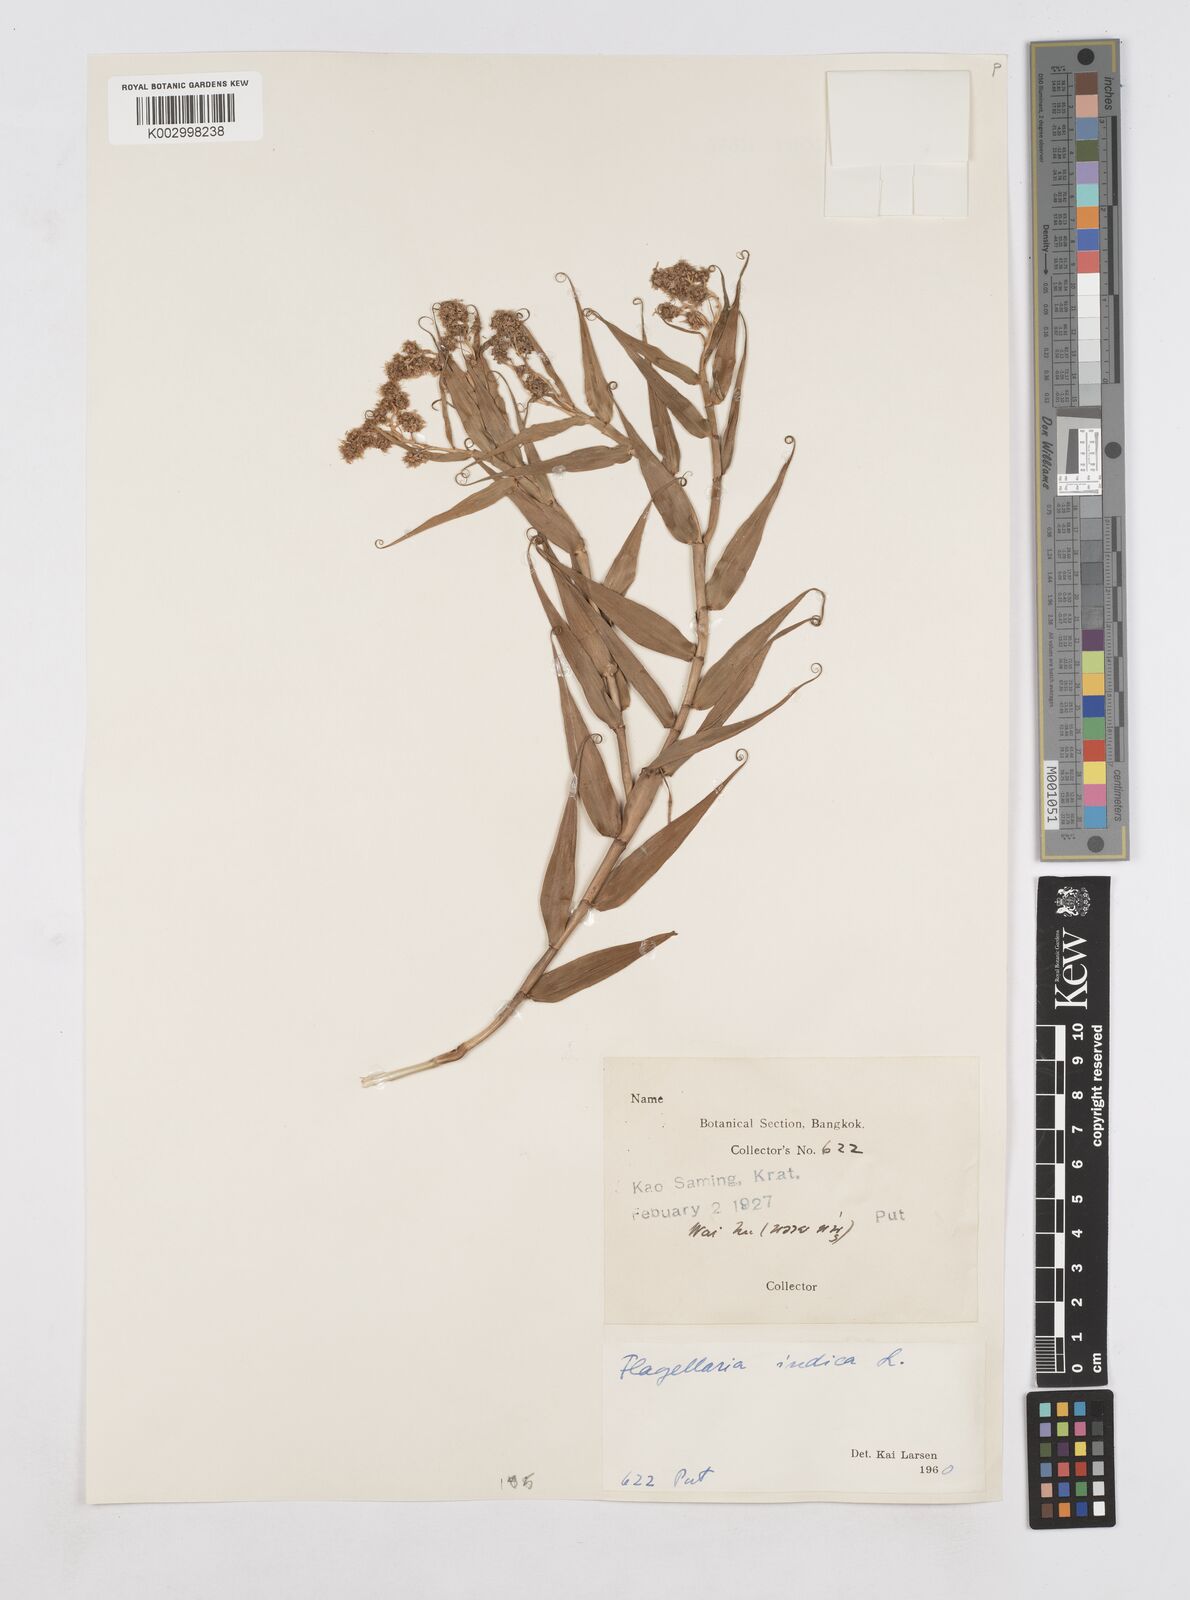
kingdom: Plantae
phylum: Tracheophyta
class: Liliopsida
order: Poales
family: Flagellariaceae
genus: Flagellaria
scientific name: Flagellaria indica
